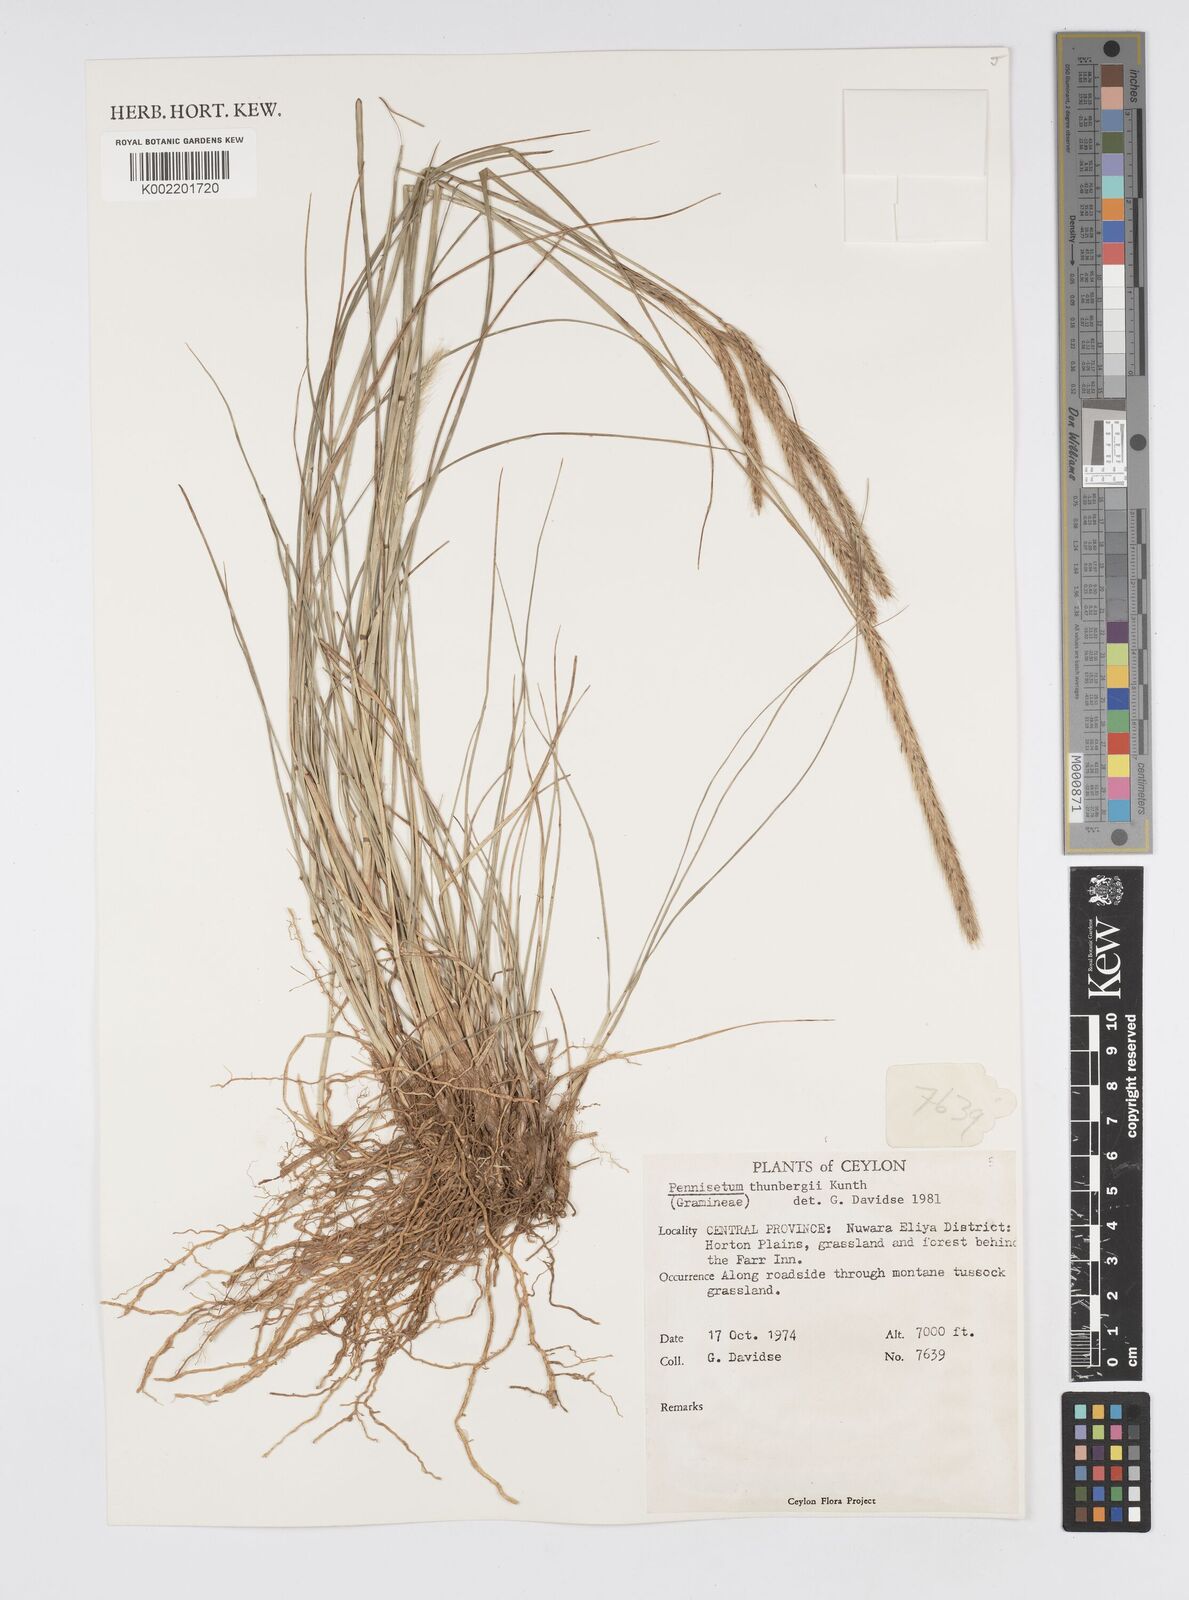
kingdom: Plantae
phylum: Tracheophyta
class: Liliopsida
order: Poales
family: Poaceae
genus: Cenchrus
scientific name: Cenchrus geniculatus
